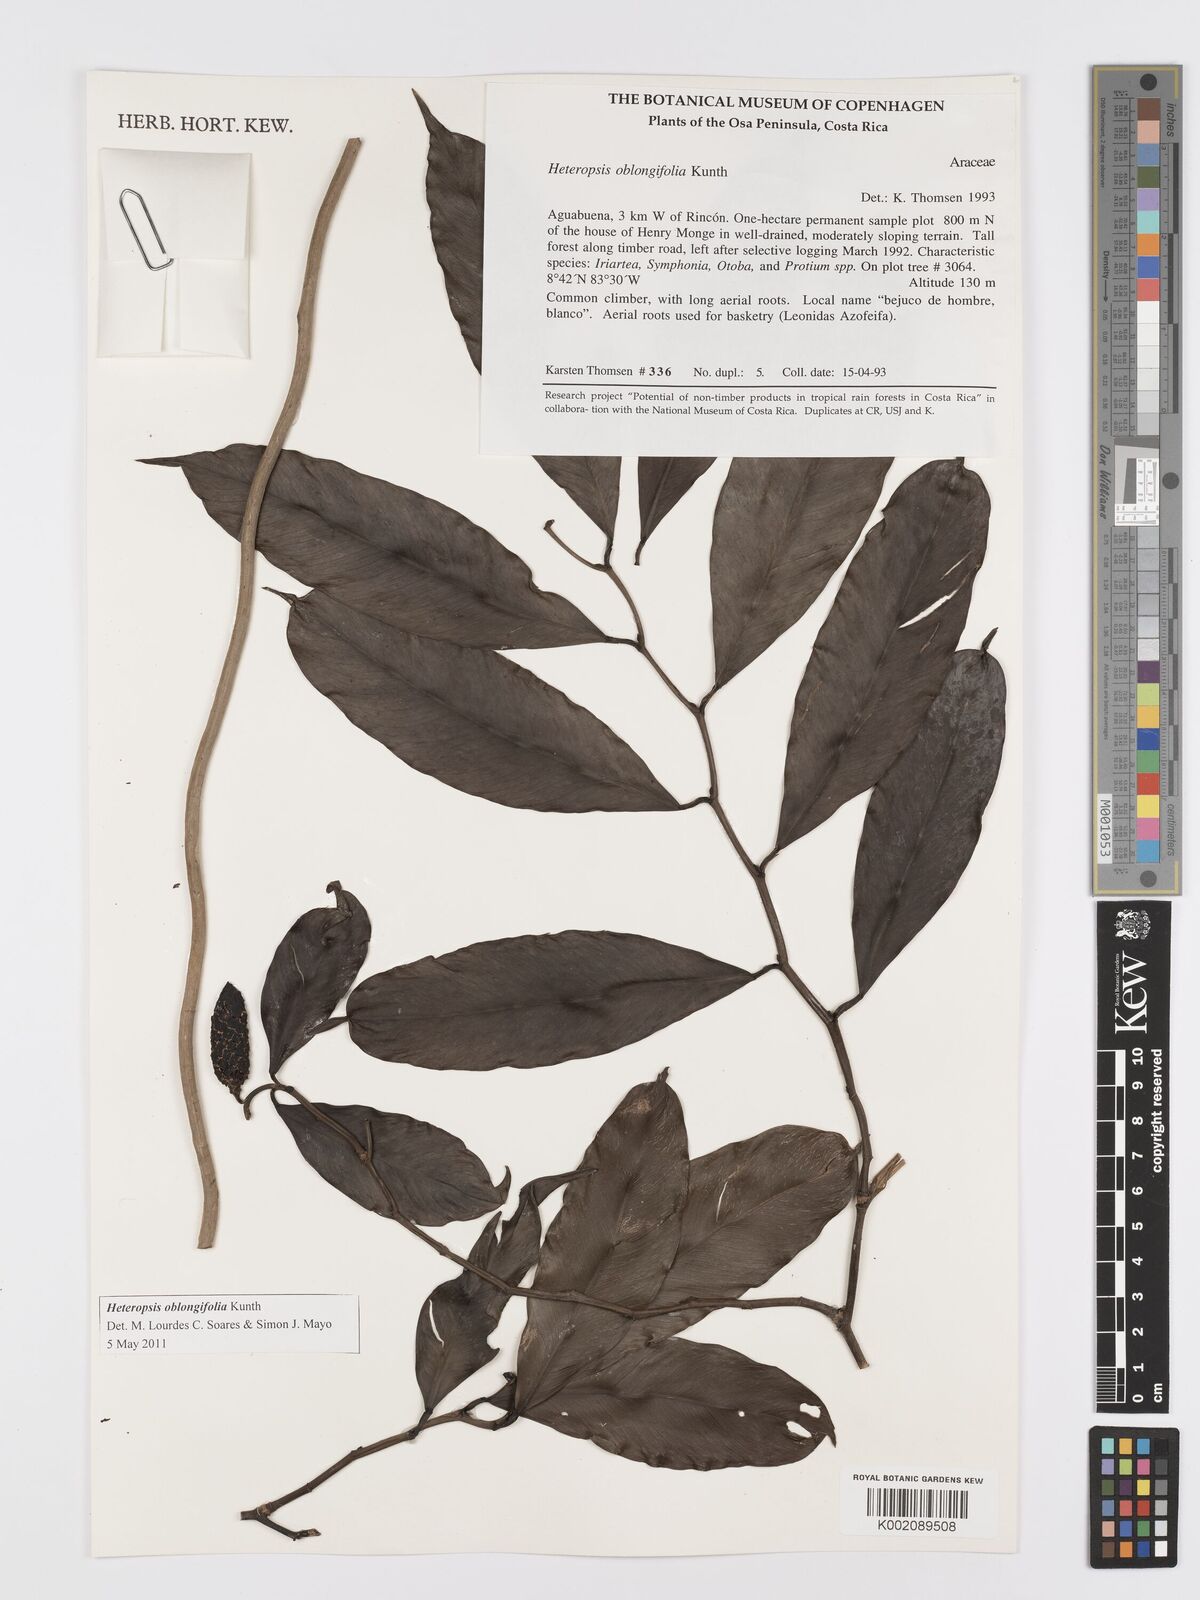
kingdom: Plantae
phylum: Tracheophyta
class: Liliopsida
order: Alismatales
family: Araceae
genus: Heteropsis
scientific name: Heteropsis oblongifolia
